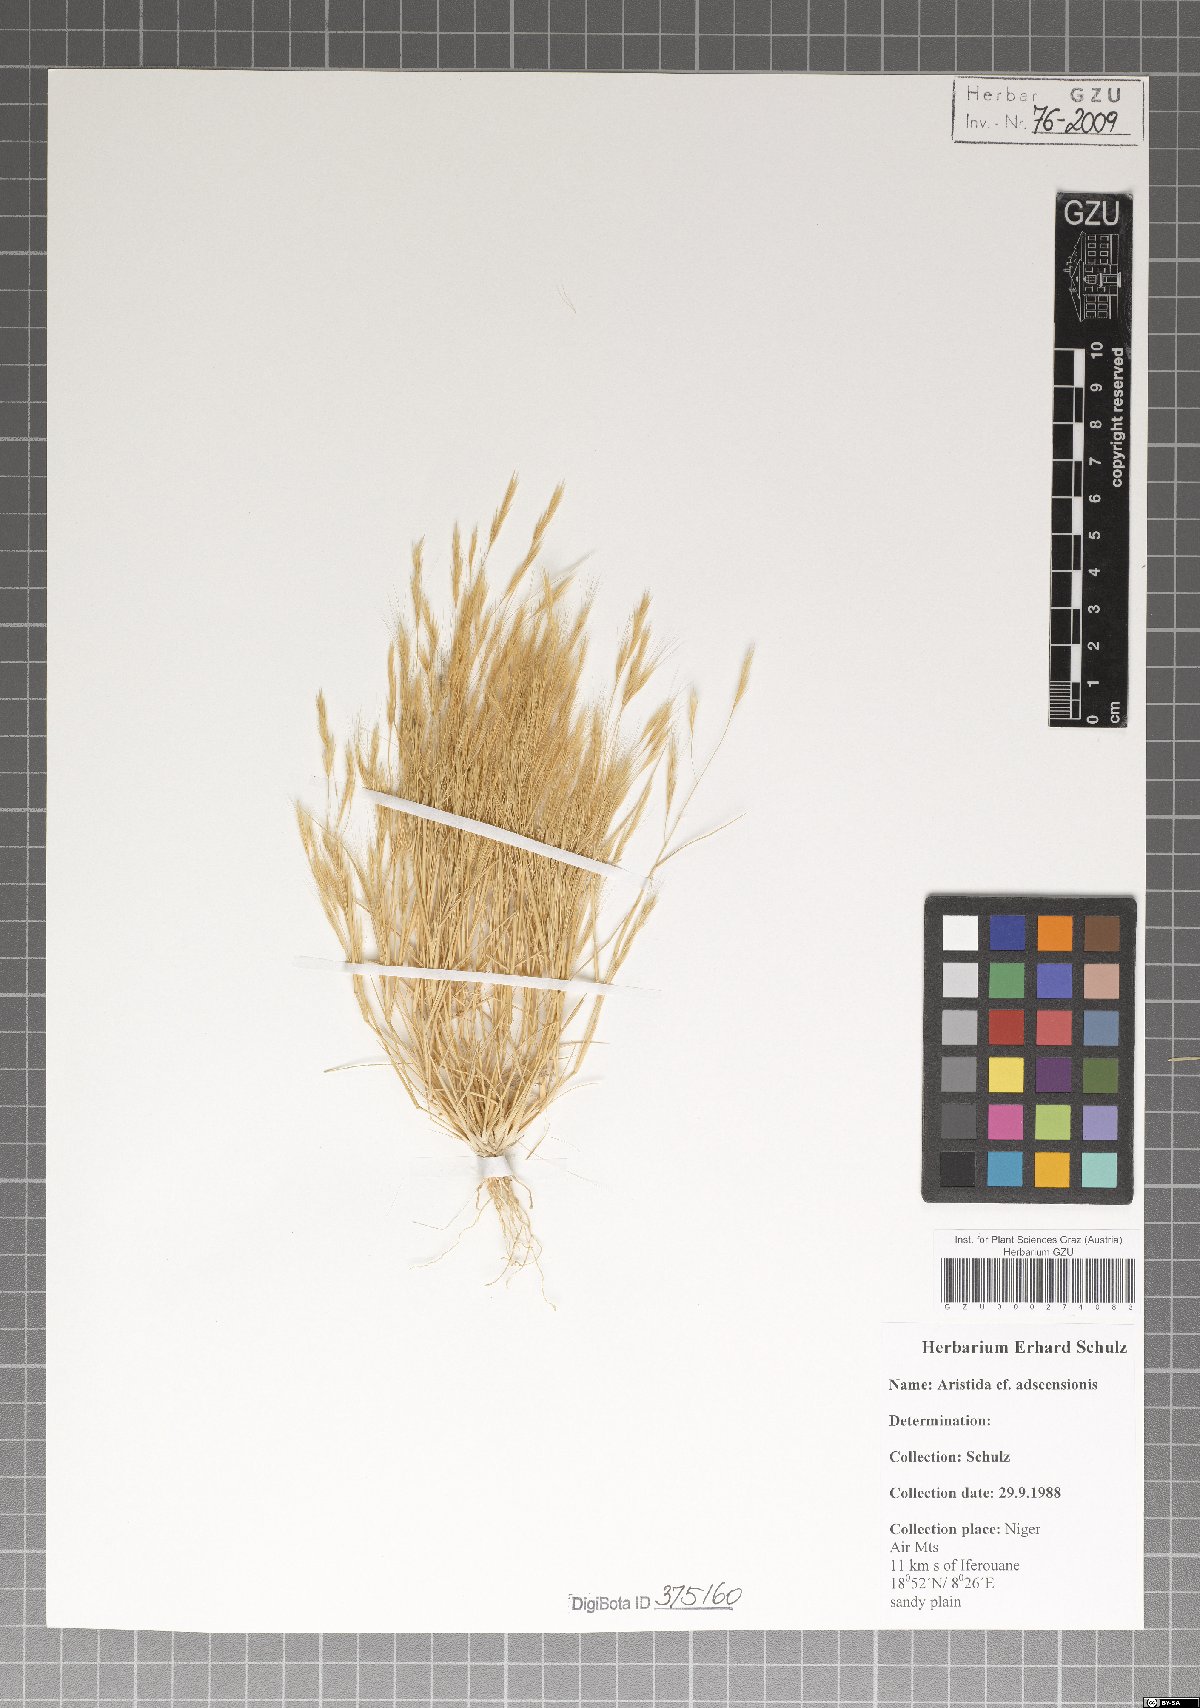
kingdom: Plantae
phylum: Tracheophyta
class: Liliopsida
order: Poales
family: Poaceae
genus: Aristida
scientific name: Aristida adscensionis
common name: Sixweeks threeawn
